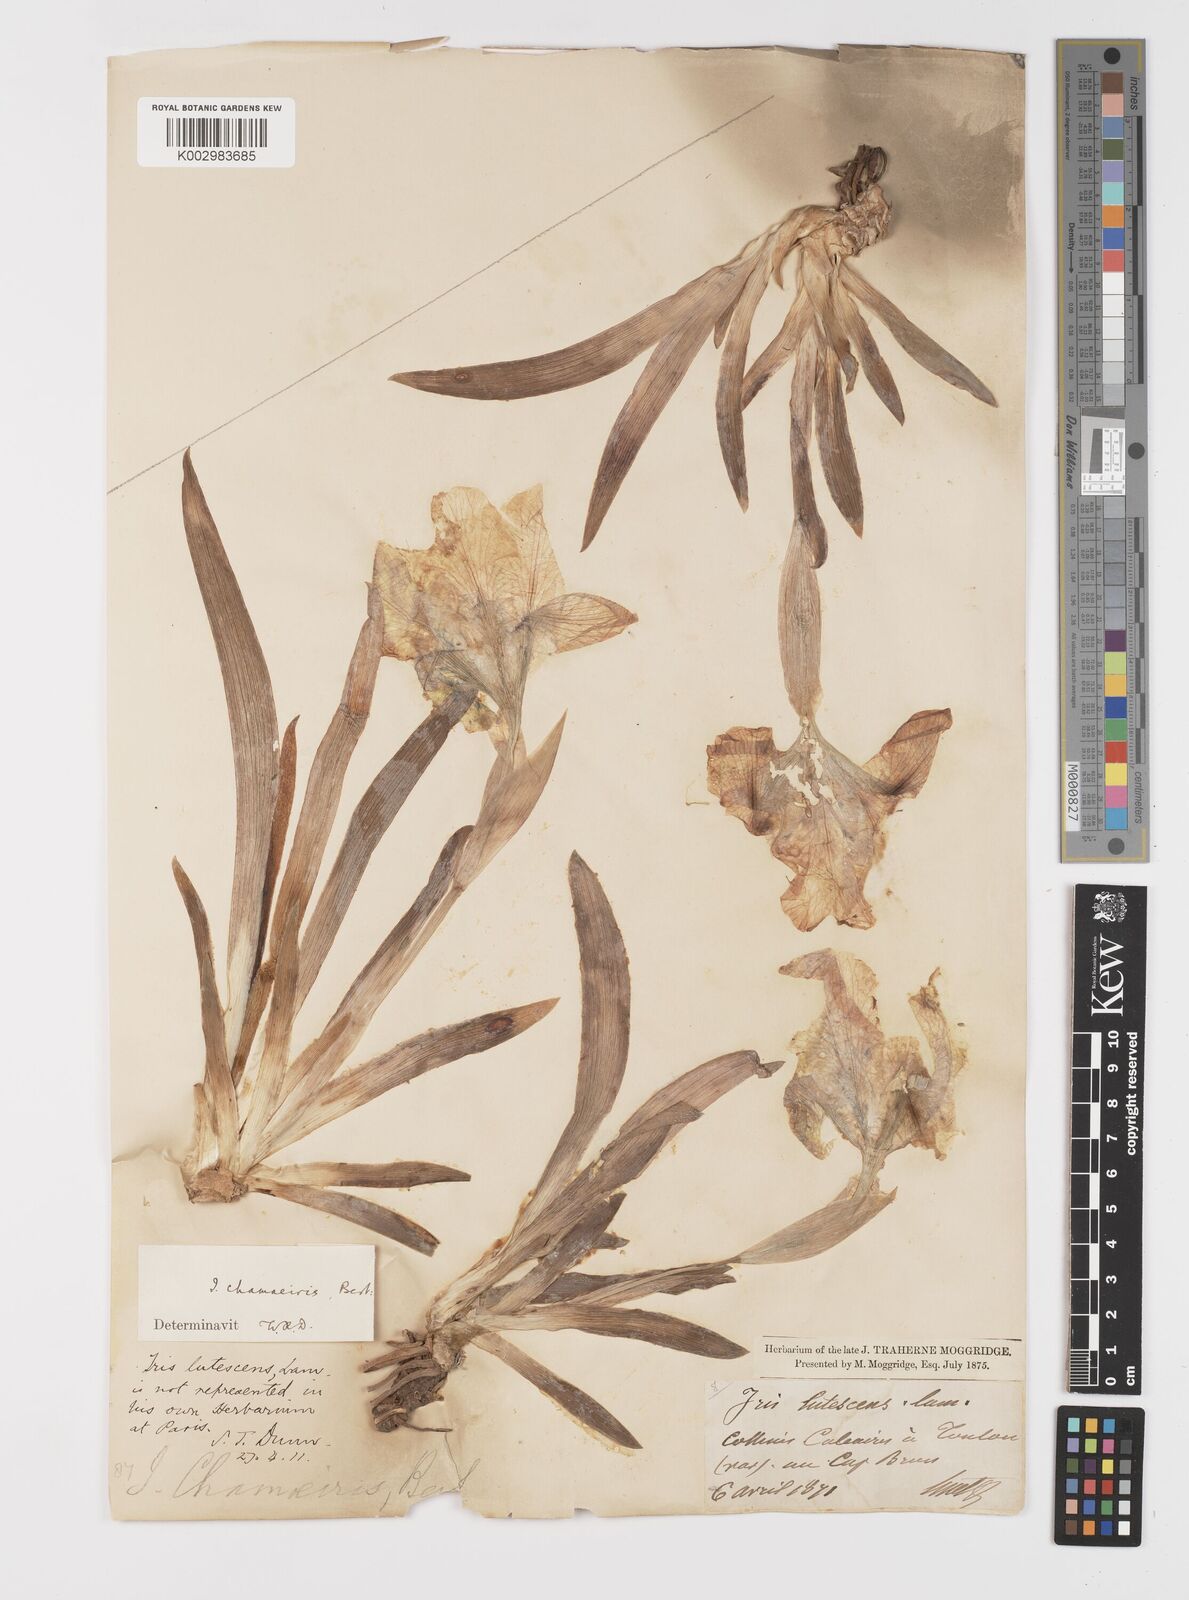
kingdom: Plantae
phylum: Tracheophyta
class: Liliopsida
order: Asparagales
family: Iridaceae
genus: Iris
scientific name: Iris lutescens
